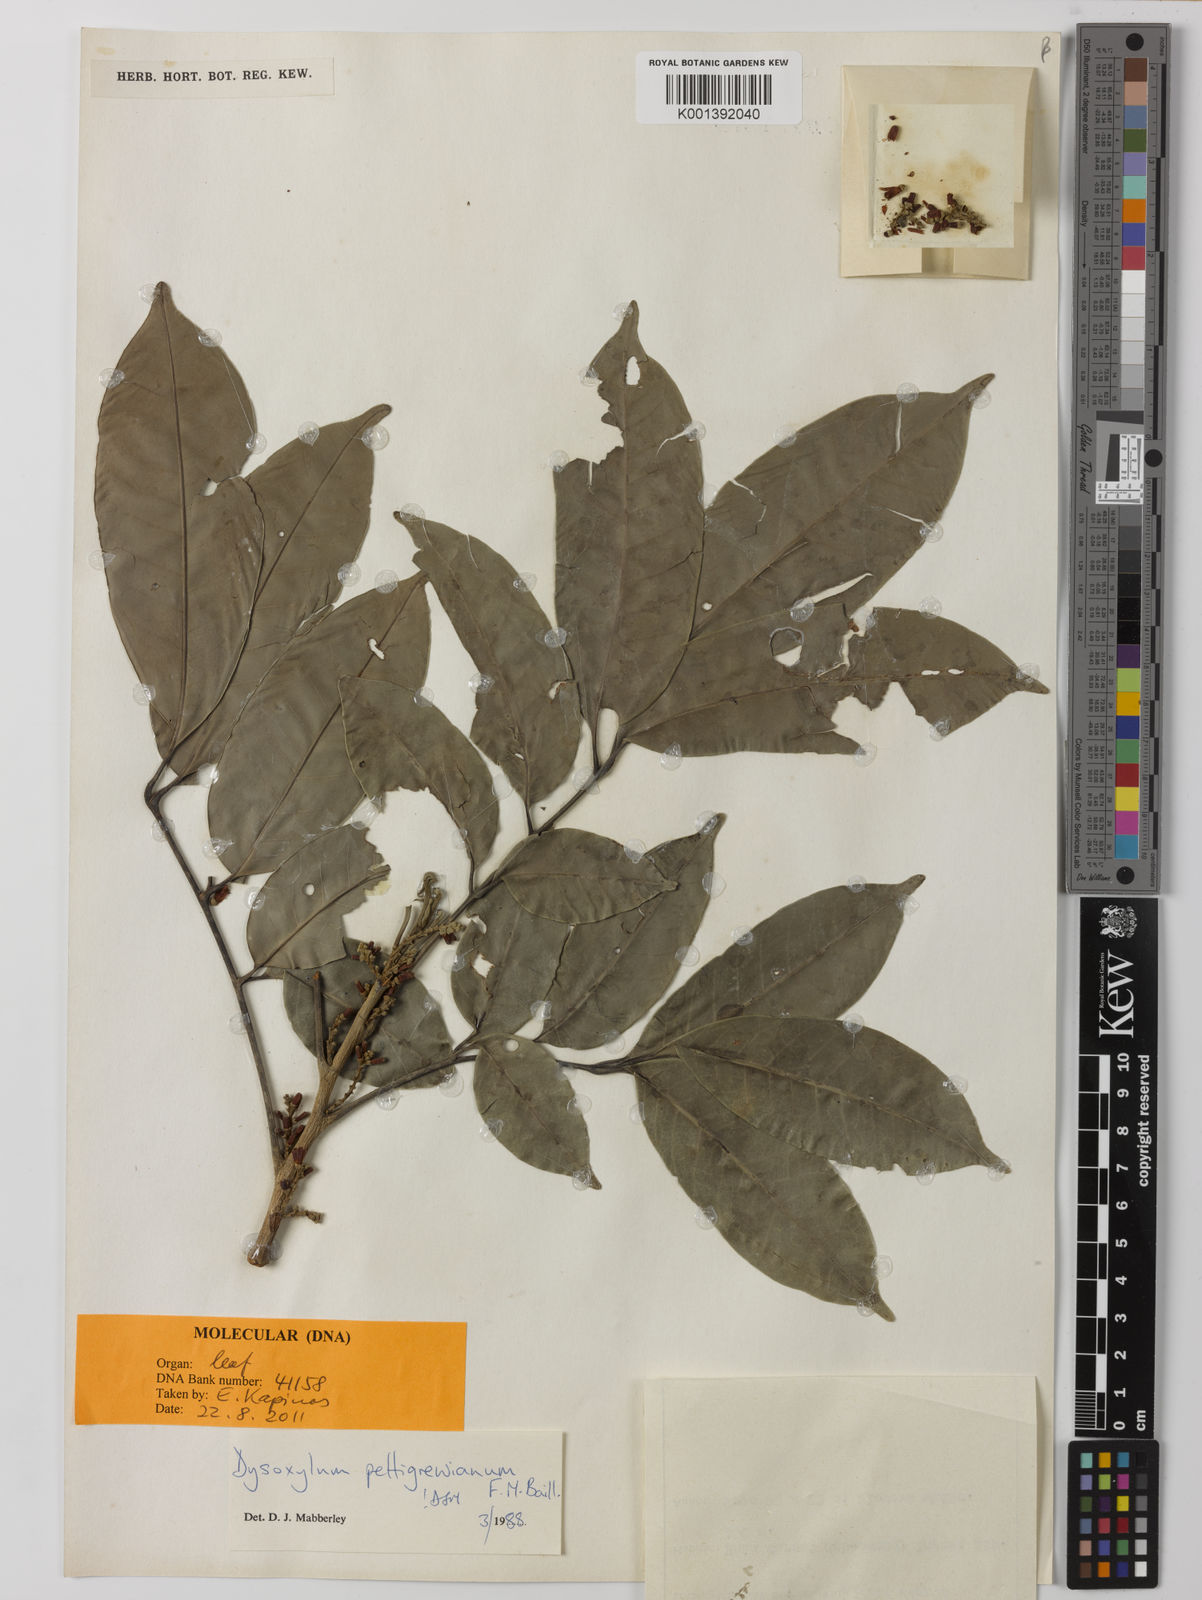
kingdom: Plantae
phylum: Tracheophyta
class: Magnoliopsida
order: Sapindales
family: Meliaceae
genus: Didymocheton
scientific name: Didymocheton pettigrewianus
